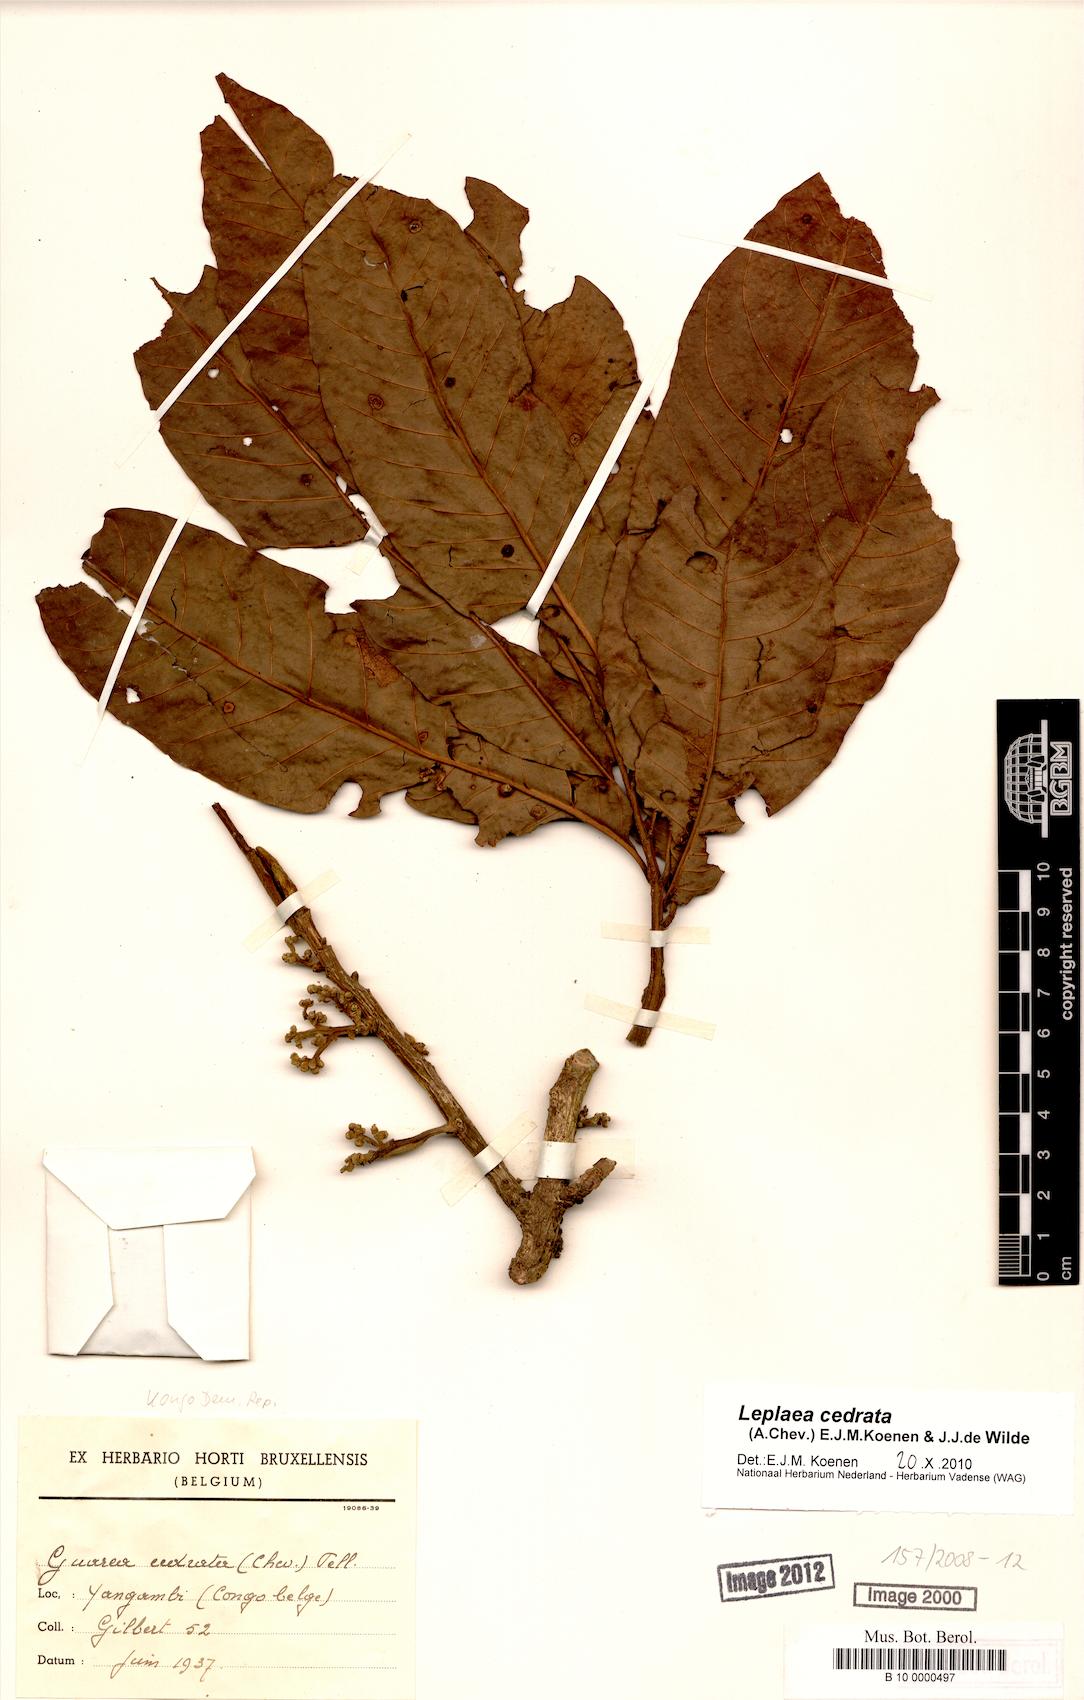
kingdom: Plantae
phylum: Tracheophyta
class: Magnoliopsida
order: Sapindales
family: Meliaceae
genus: Leplaea
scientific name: Leplaea cedrata
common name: Light bossé
